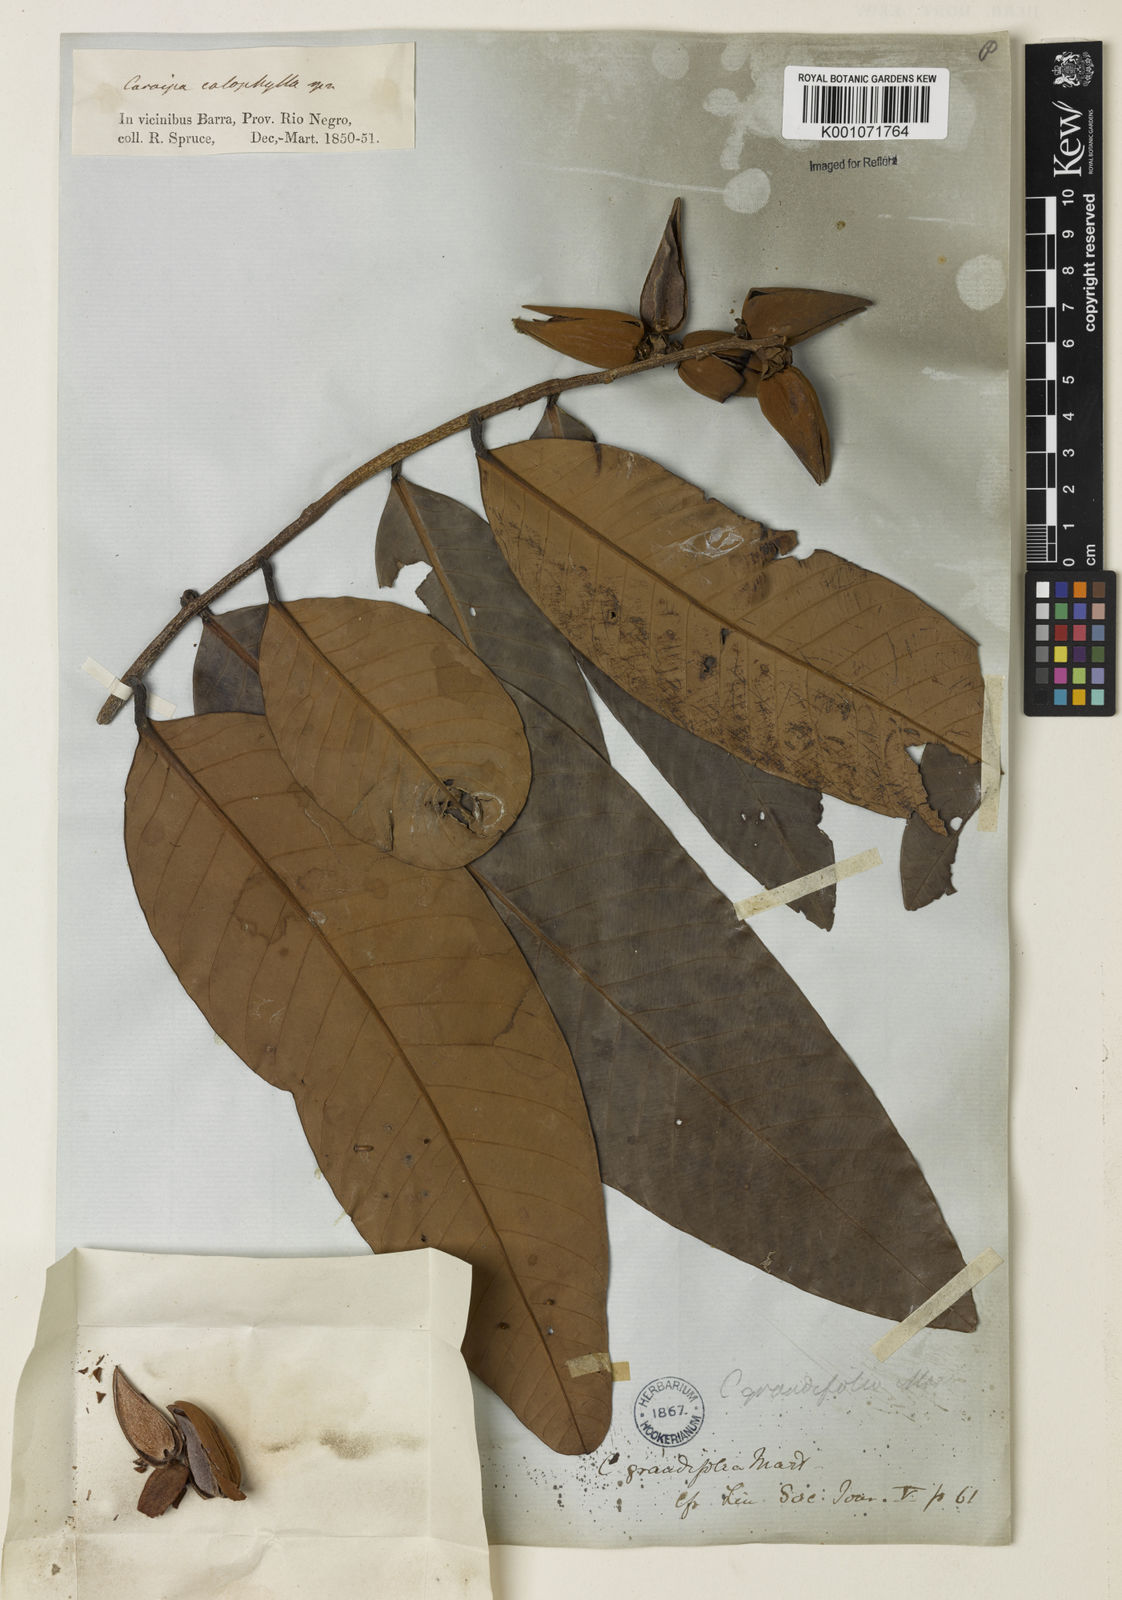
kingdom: Plantae
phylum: Tracheophyta
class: Magnoliopsida
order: Malpighiales
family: Calophyllaceae
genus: Caraipa
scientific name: Caraipa grandifolia
